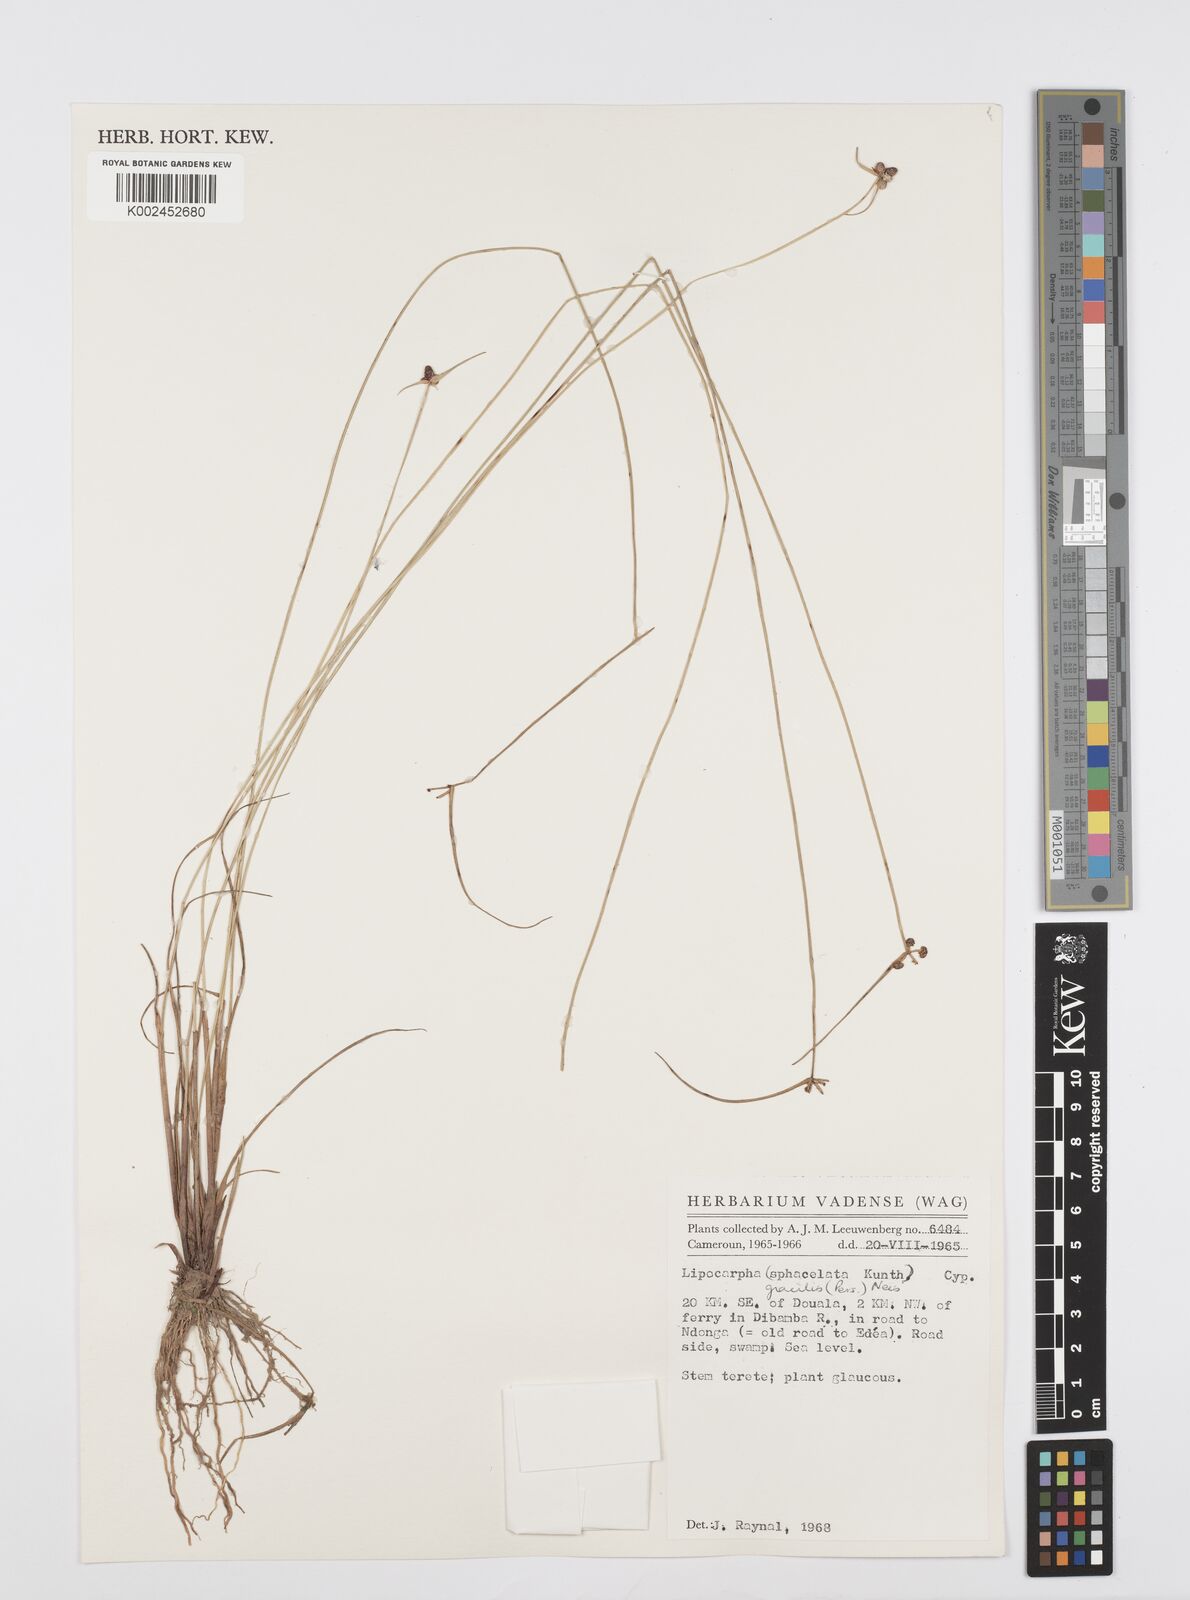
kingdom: Plantae
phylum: Tracheophyta
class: Liliopsida
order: Poales
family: Cyperaceae
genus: Cyperus
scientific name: Cyperus filiformis
